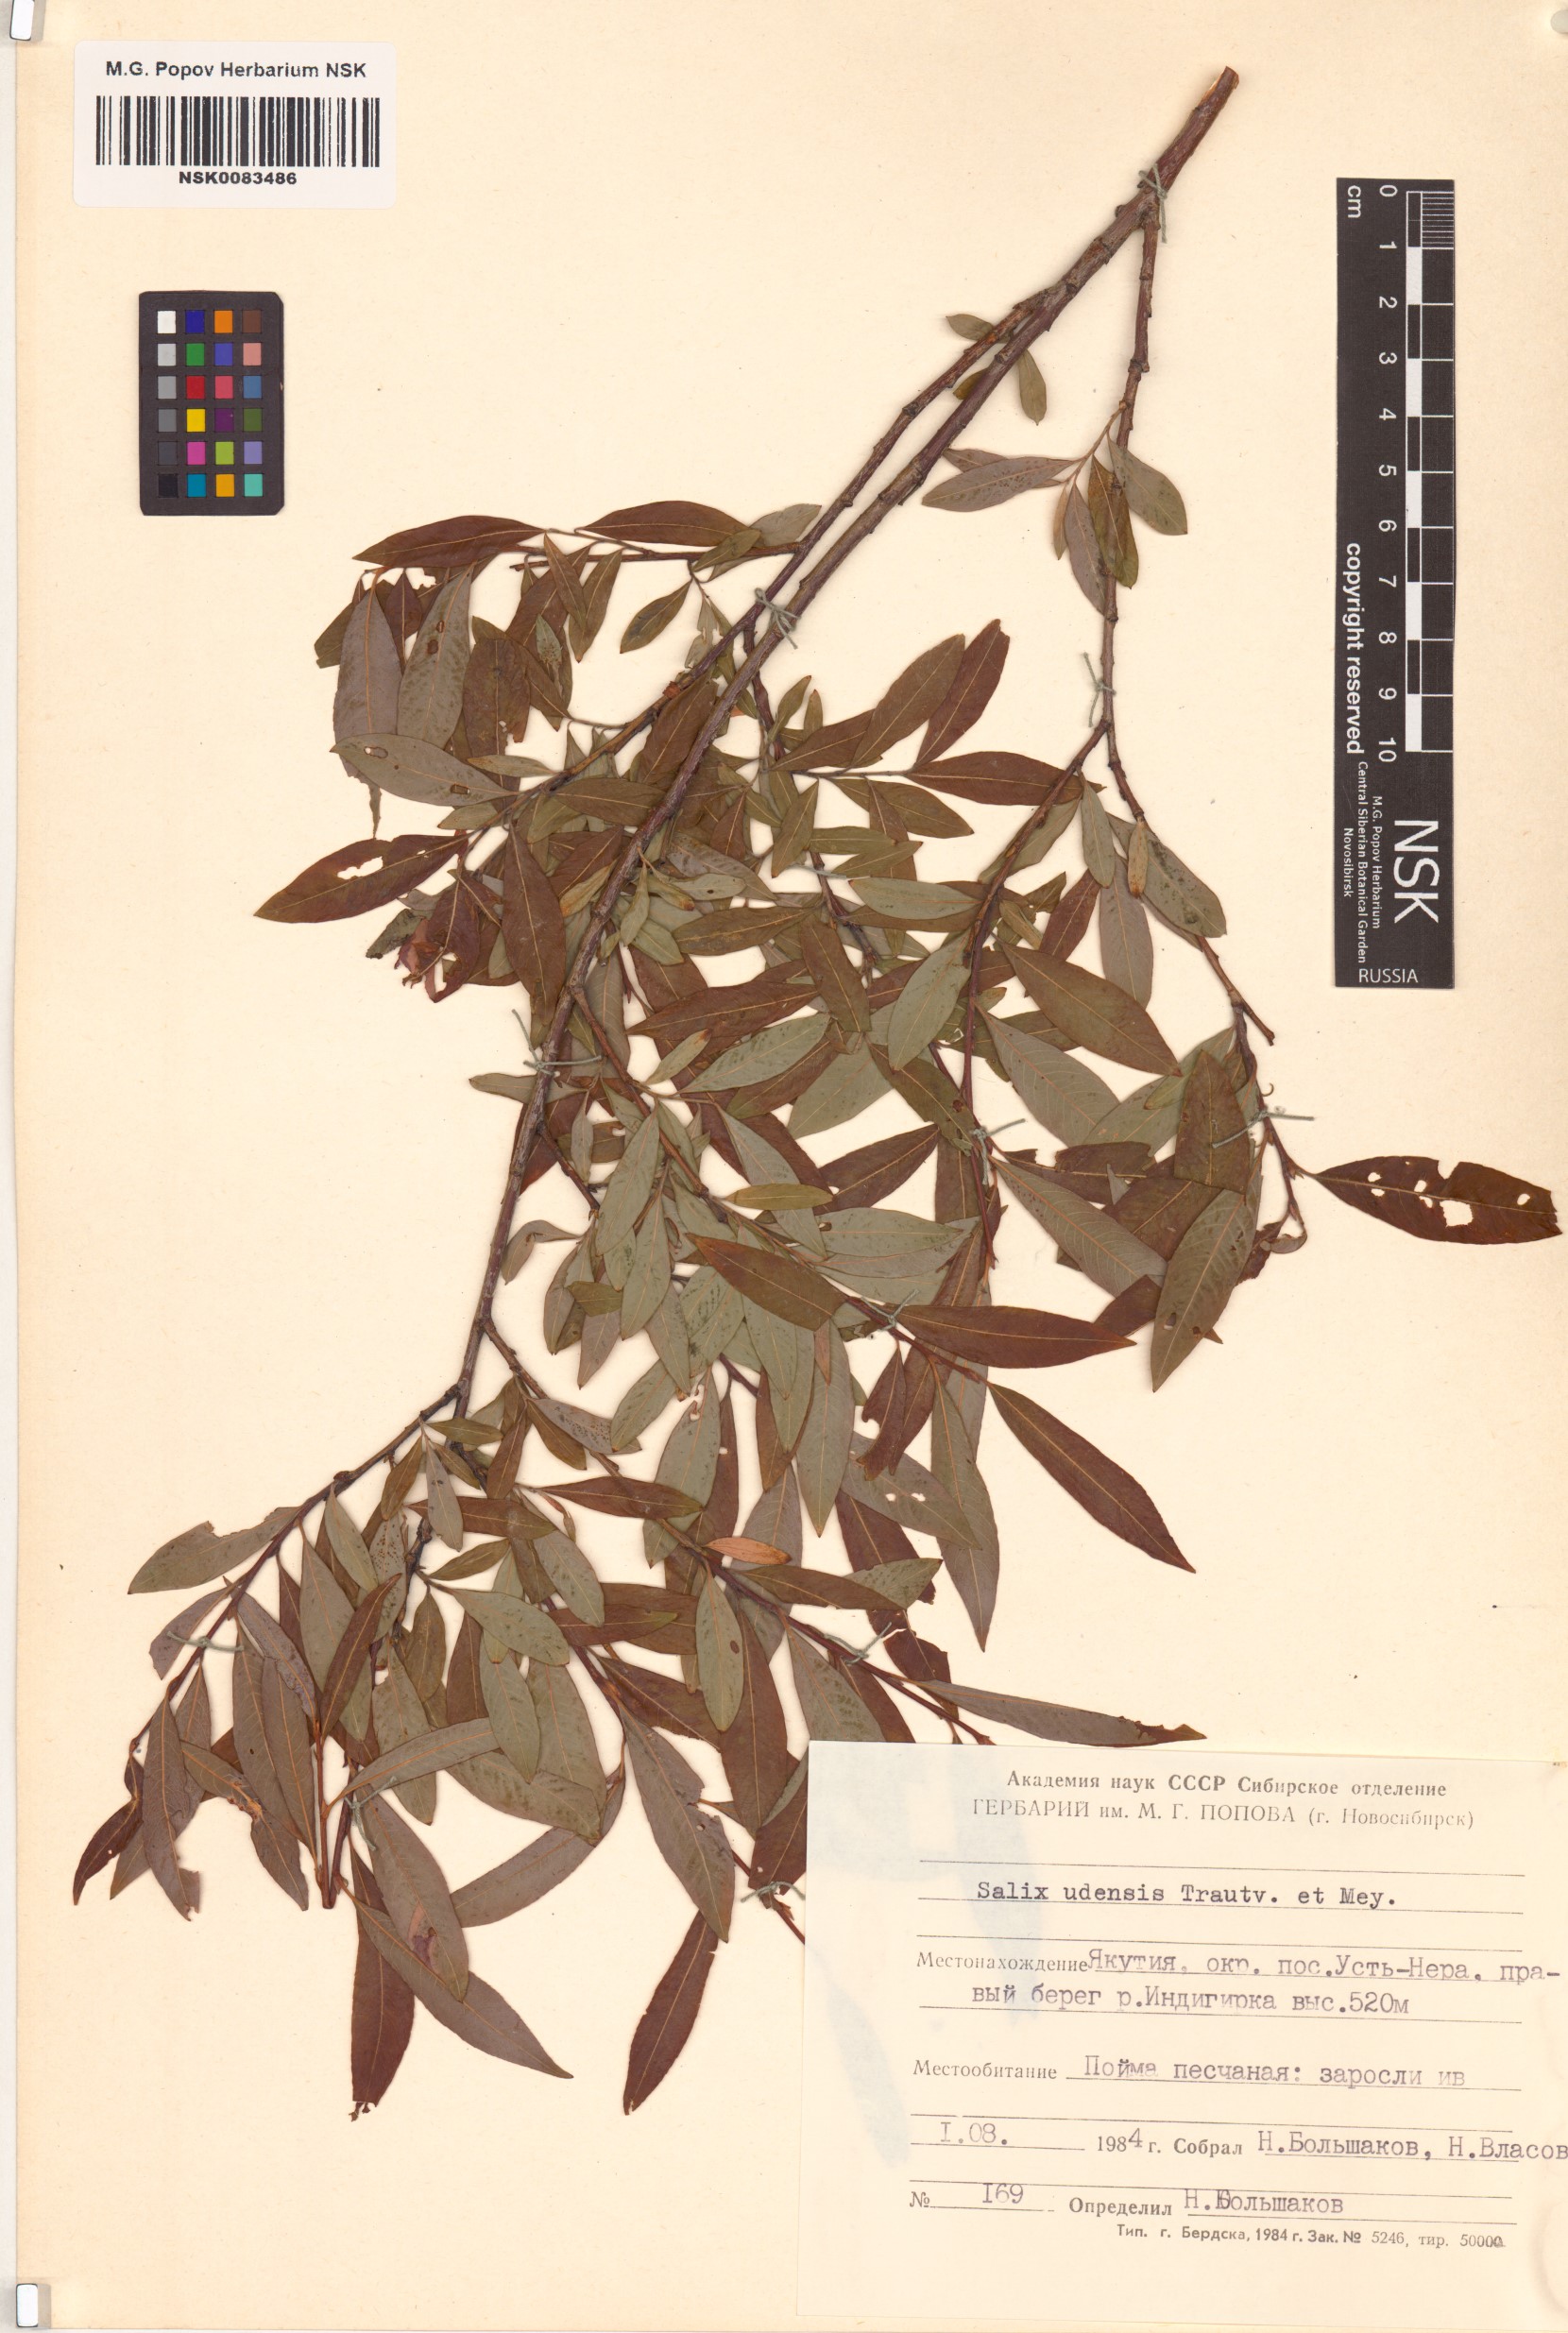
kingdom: Plantae
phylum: Tracheophyta
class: Magnoliopsida
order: Malpighiales
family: Salicaceae
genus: Salix
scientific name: Salix udensis
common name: Sachalin willow
